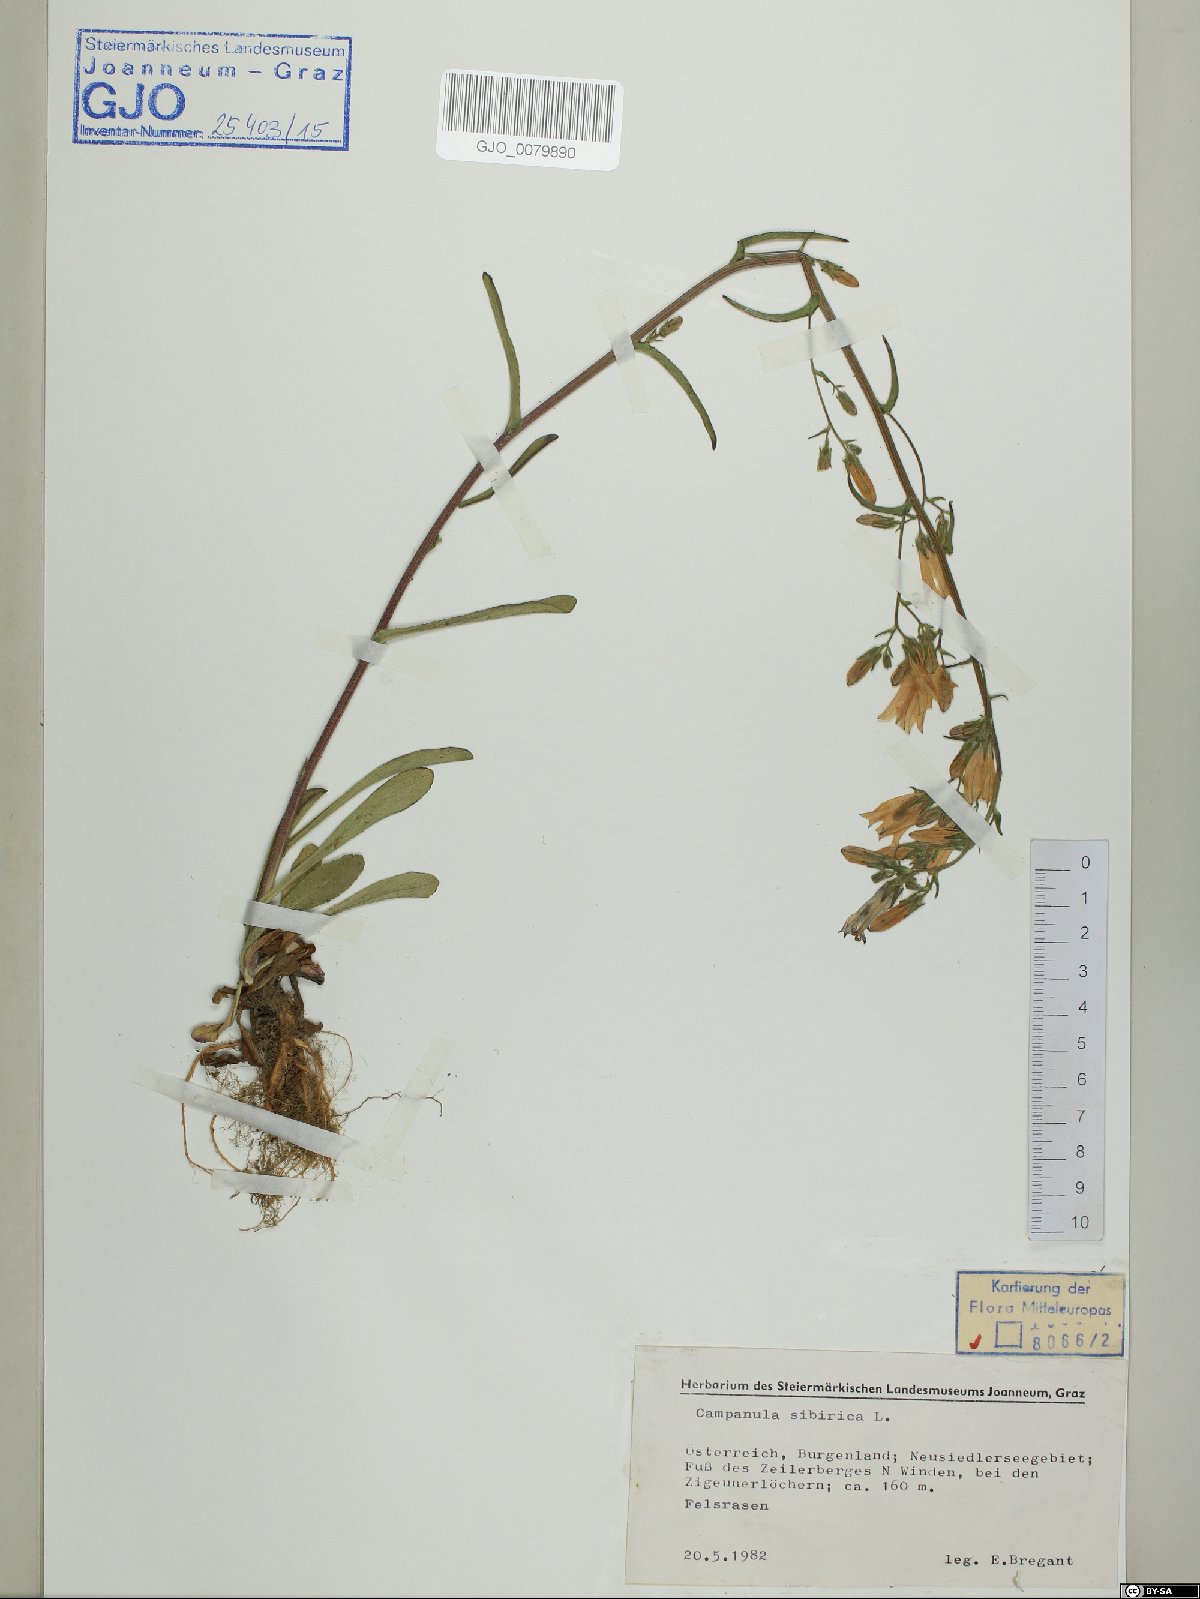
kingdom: Plantae
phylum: Tracheophyta
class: Magnoliopsida
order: Asterales
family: Campanulaceae
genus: Campanula
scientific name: Campanula sibirica
